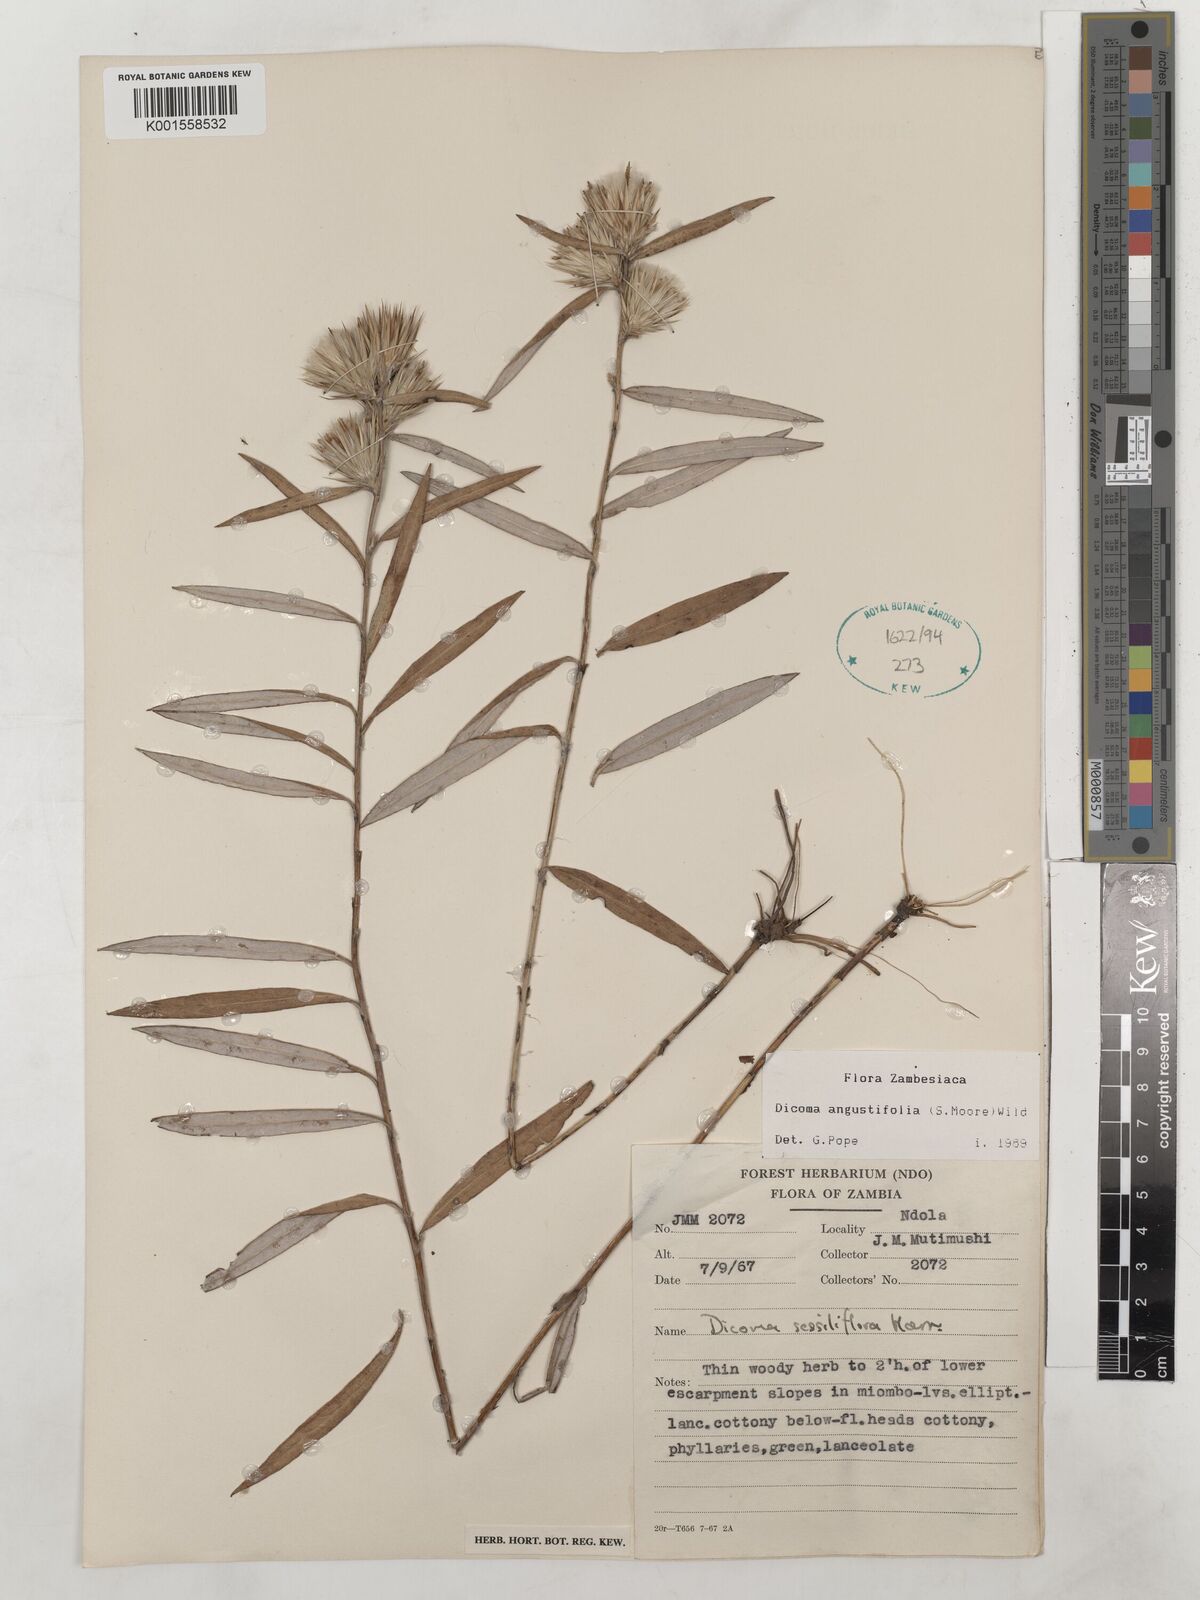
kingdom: Plantae
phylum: Tracheophyta
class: Magnoliopsida
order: Asterales
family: Asteraceae
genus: Macledium
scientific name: Macledium poggei
